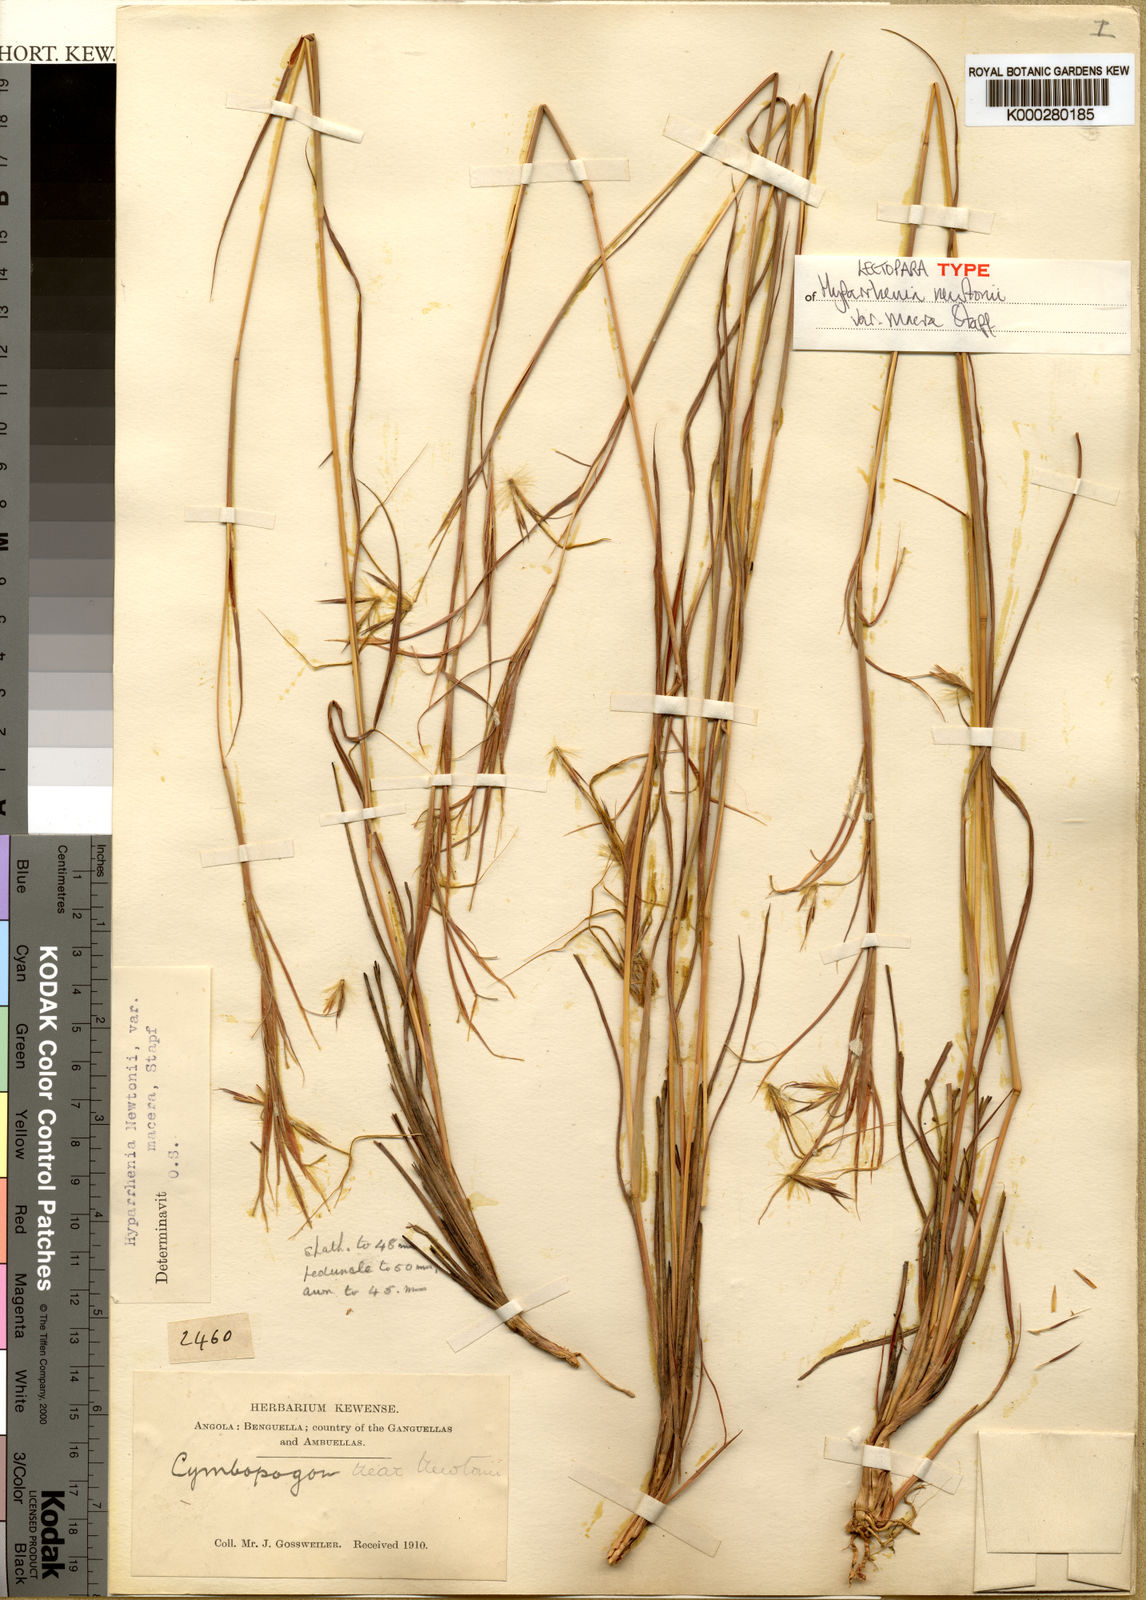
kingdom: Plantae
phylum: Tracheophyta
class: Liliopsida
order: Poales
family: Poaceae
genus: Hyparrhenia
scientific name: Hyparrhenia newtonii
